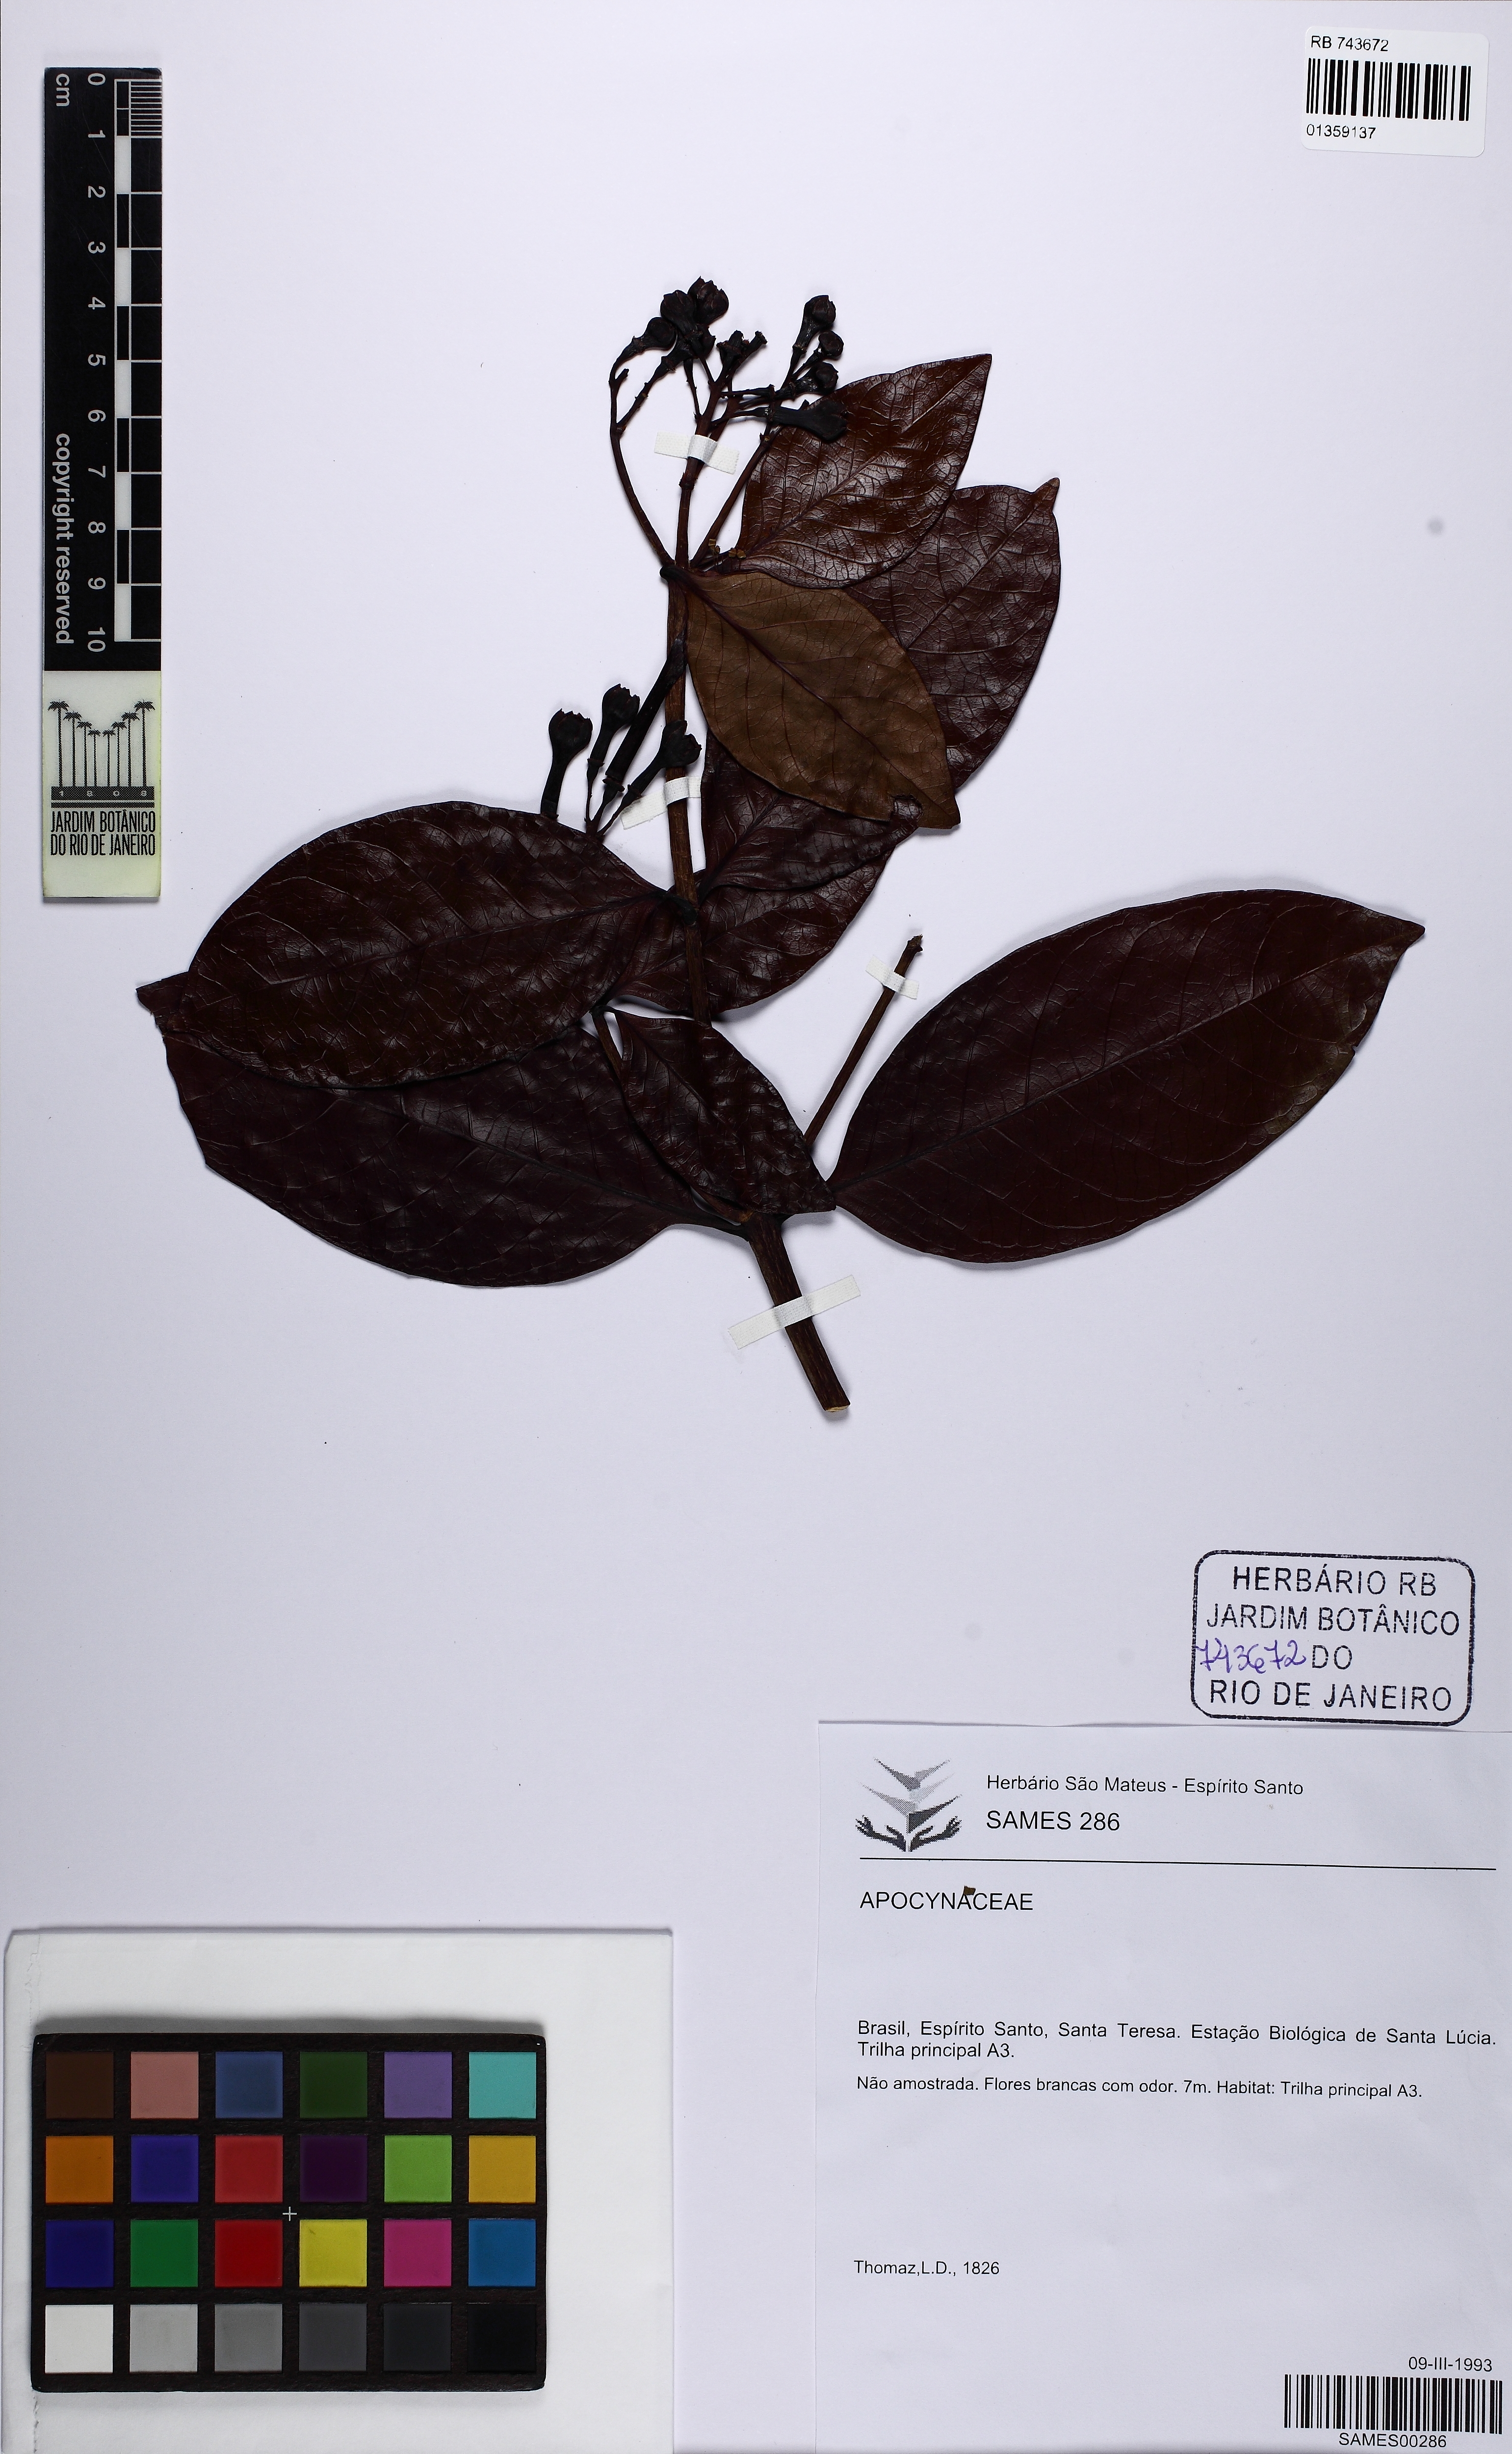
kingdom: Plantae
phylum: Tracheophyta
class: Magnoliopsida
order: Gentianales
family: Apocynaceae
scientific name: Apocynaceae
